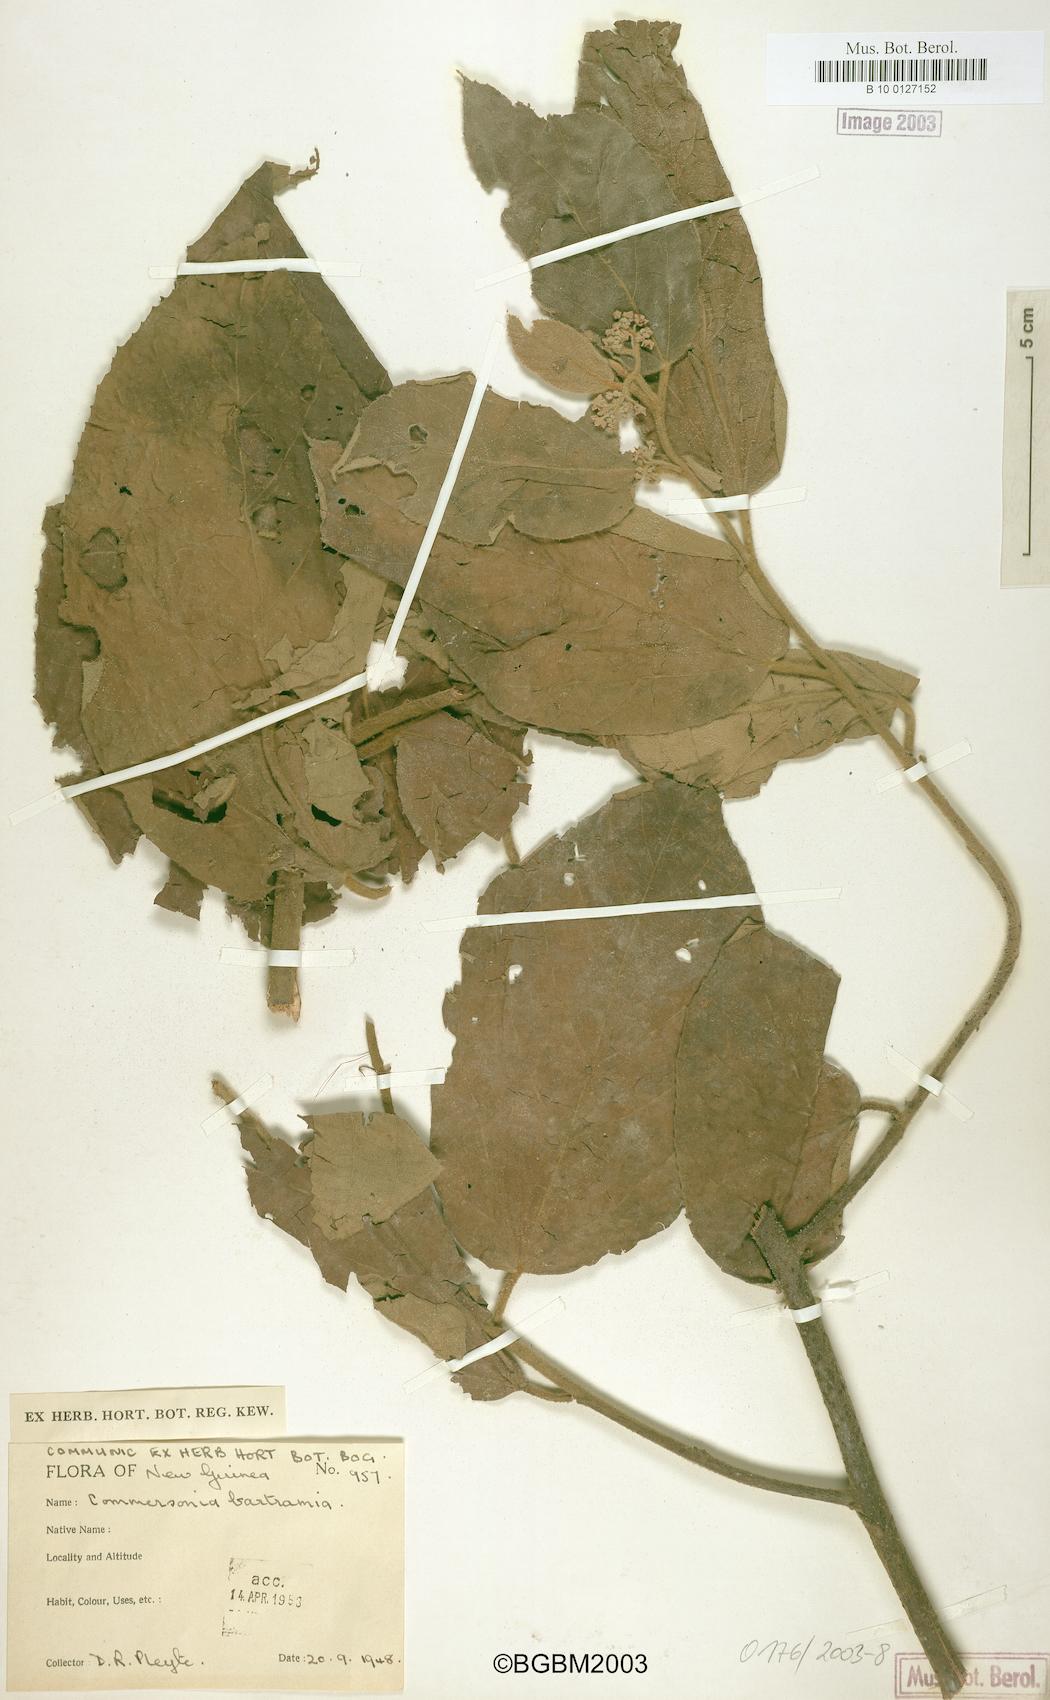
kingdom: Plantae
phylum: Tracheophyta
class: Magnoliopsida
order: Malvales
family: Malvaceae
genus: Commersonia
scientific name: Commersonia bartramia
